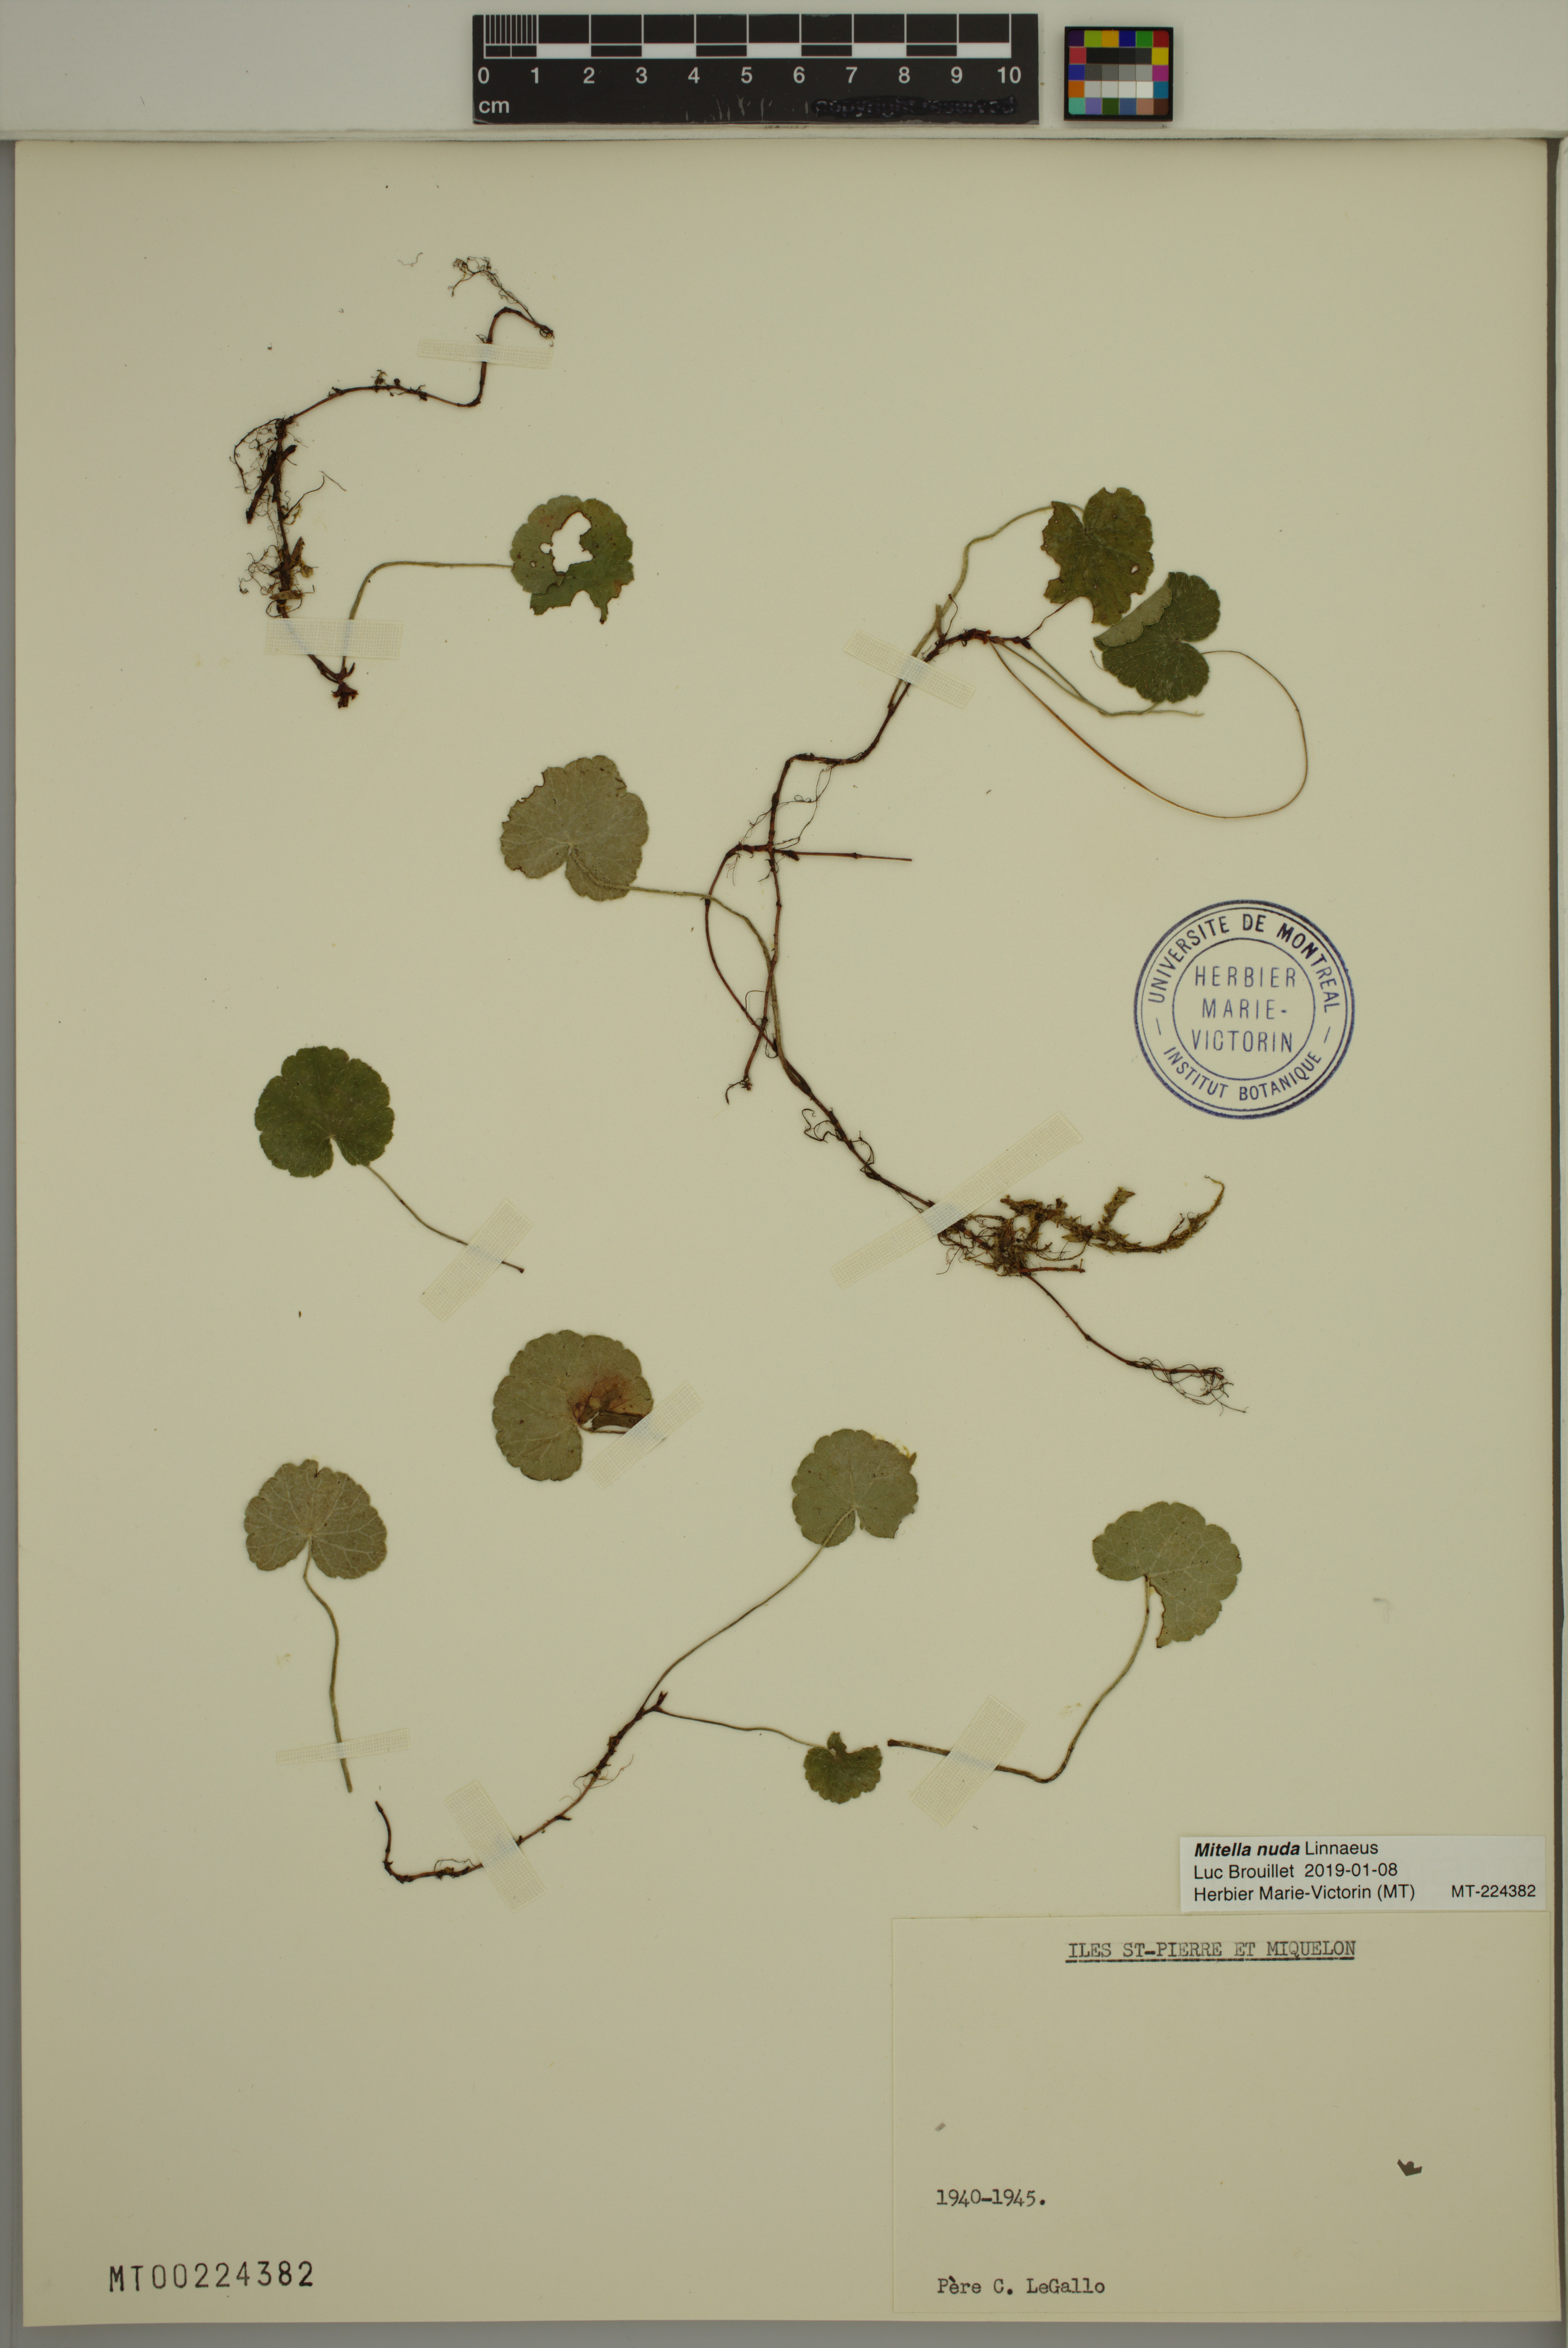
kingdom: Plantae
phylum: Tracheophyta
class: Magnoliopsida
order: Saxifragales
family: Saxifragaceae
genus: Mitella
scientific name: Mitella nuda
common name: Bare-stemmed bishop's-cap
